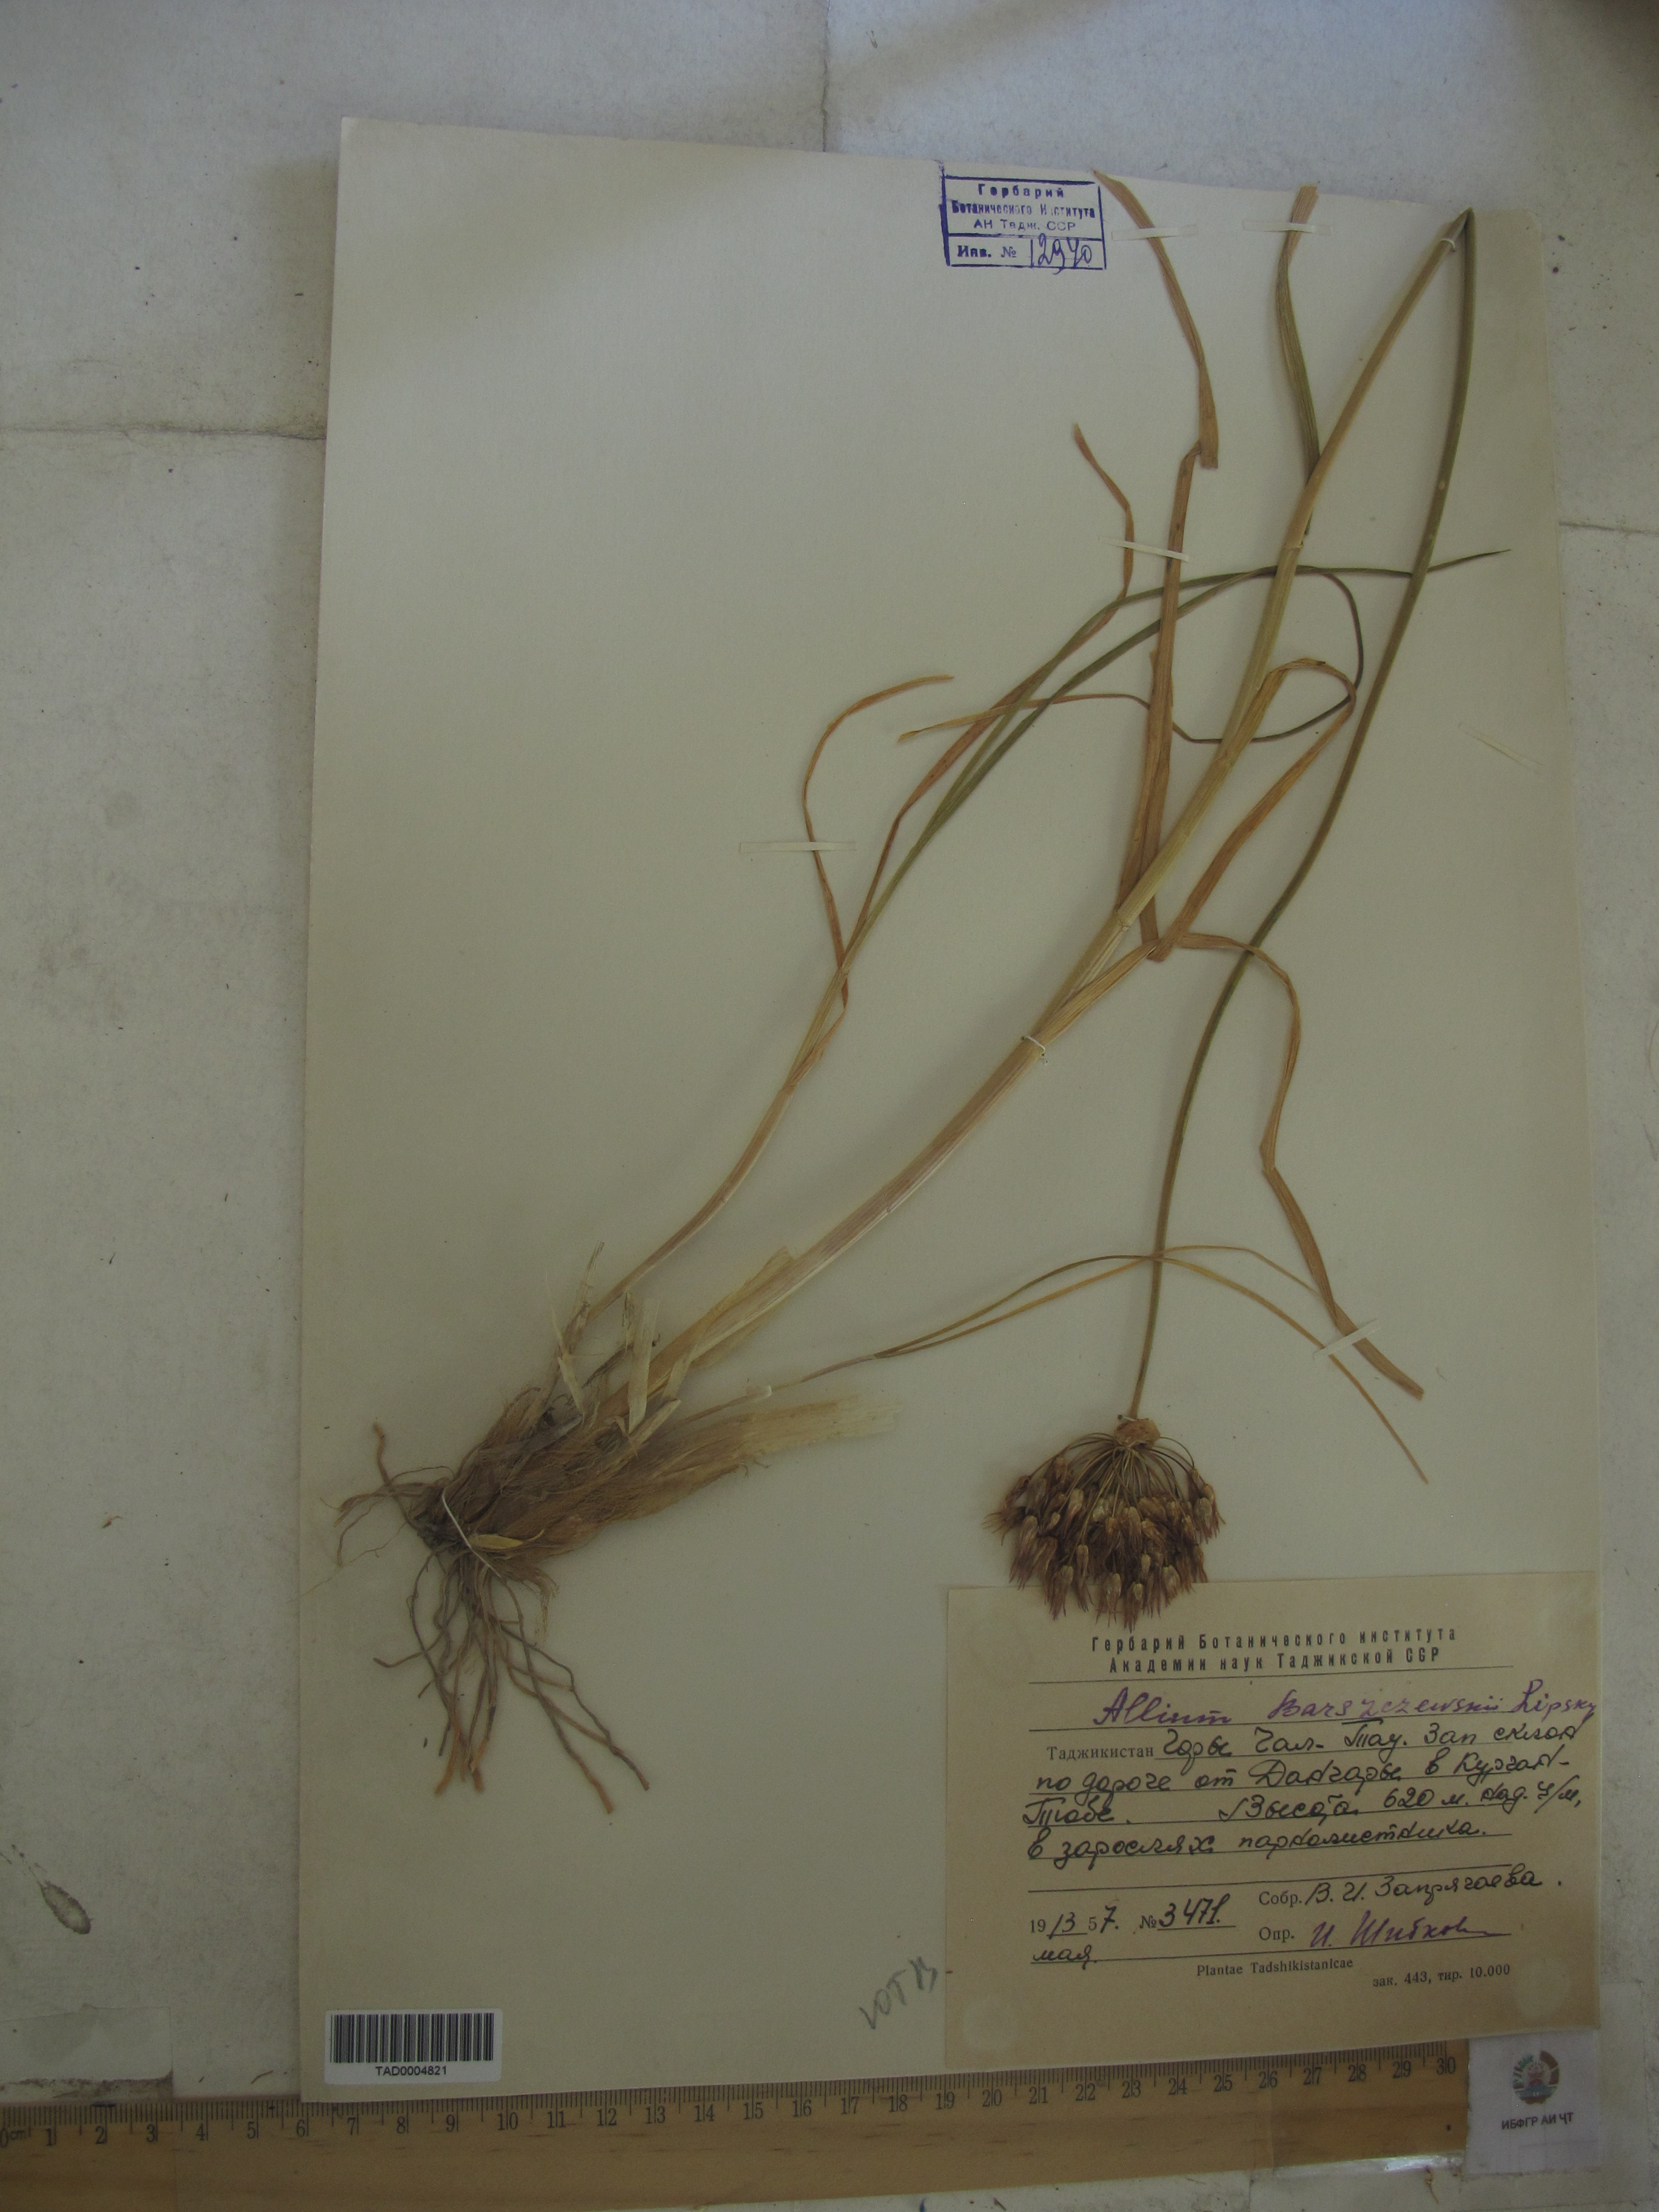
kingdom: Plantae
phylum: Tracheophyta
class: Liliopsida
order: Asparagales
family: Amaryllidaceae
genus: Allium
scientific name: Allium barsczewskii
